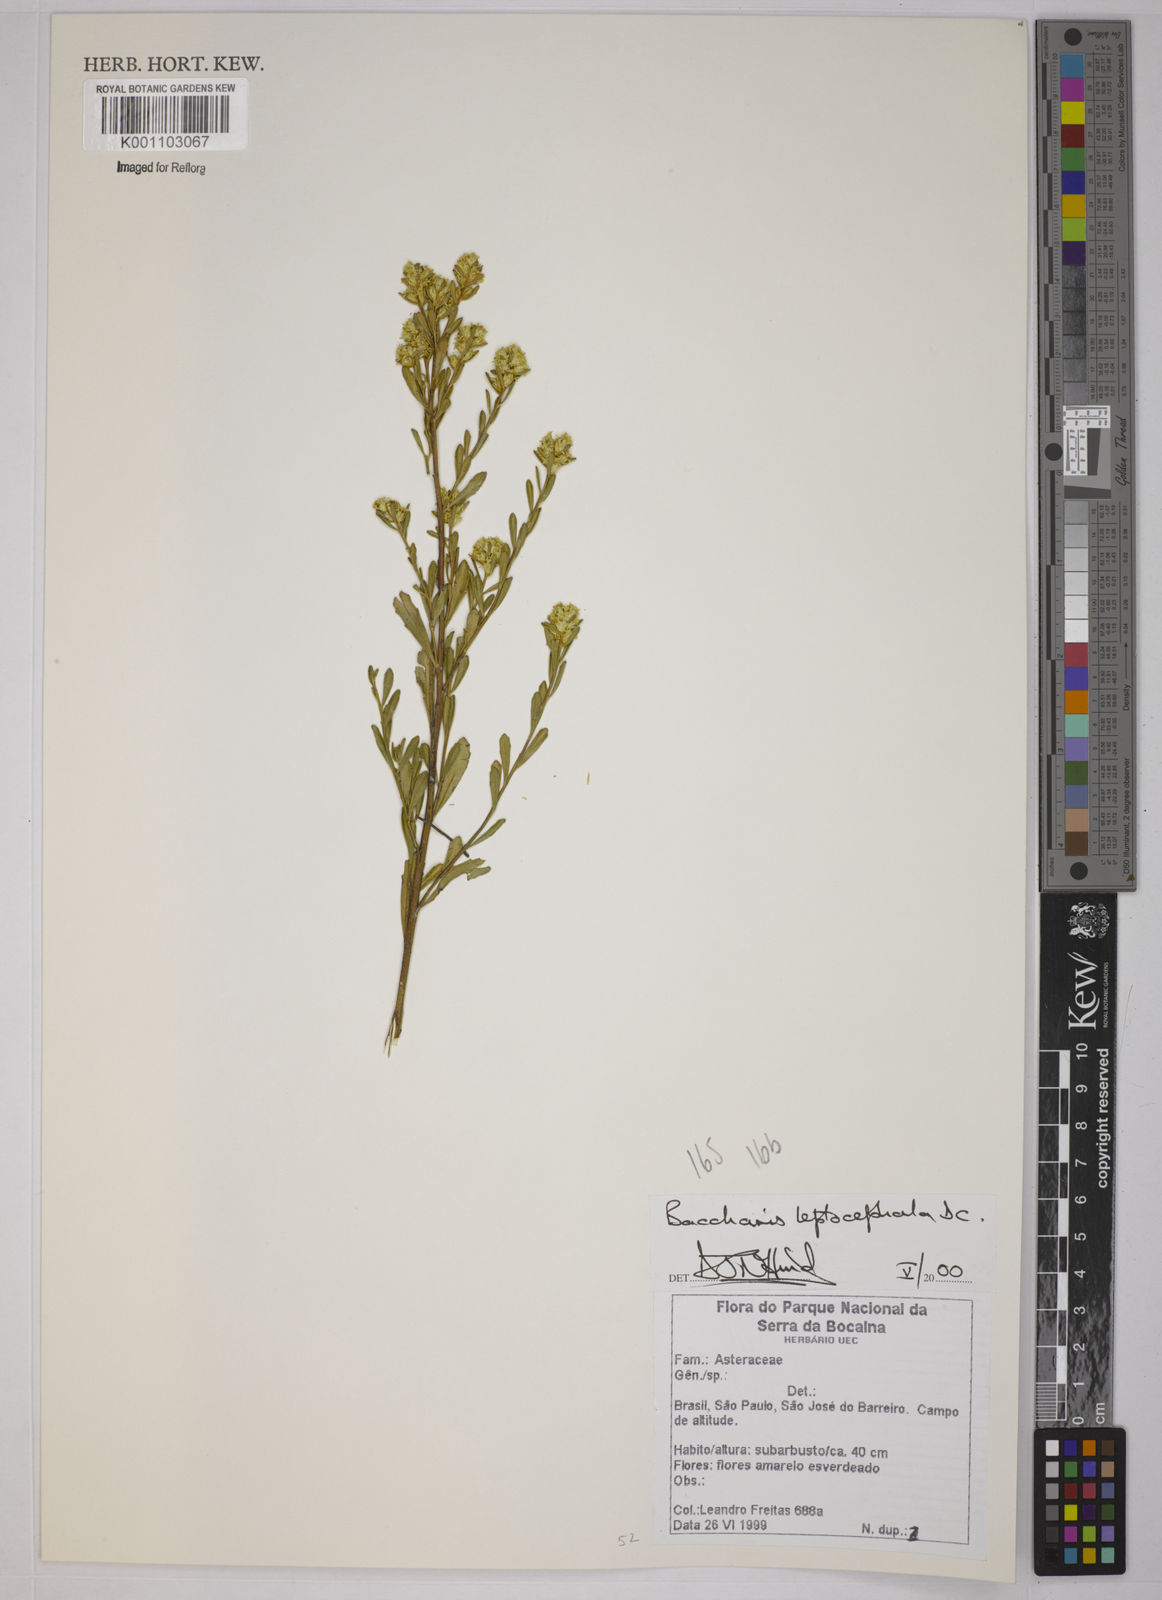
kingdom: Plantae
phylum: Tracheophyta
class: Magnoliopsida
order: Asterales
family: Asteraceae
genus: Baccharis
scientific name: Baccharis leptocephala
